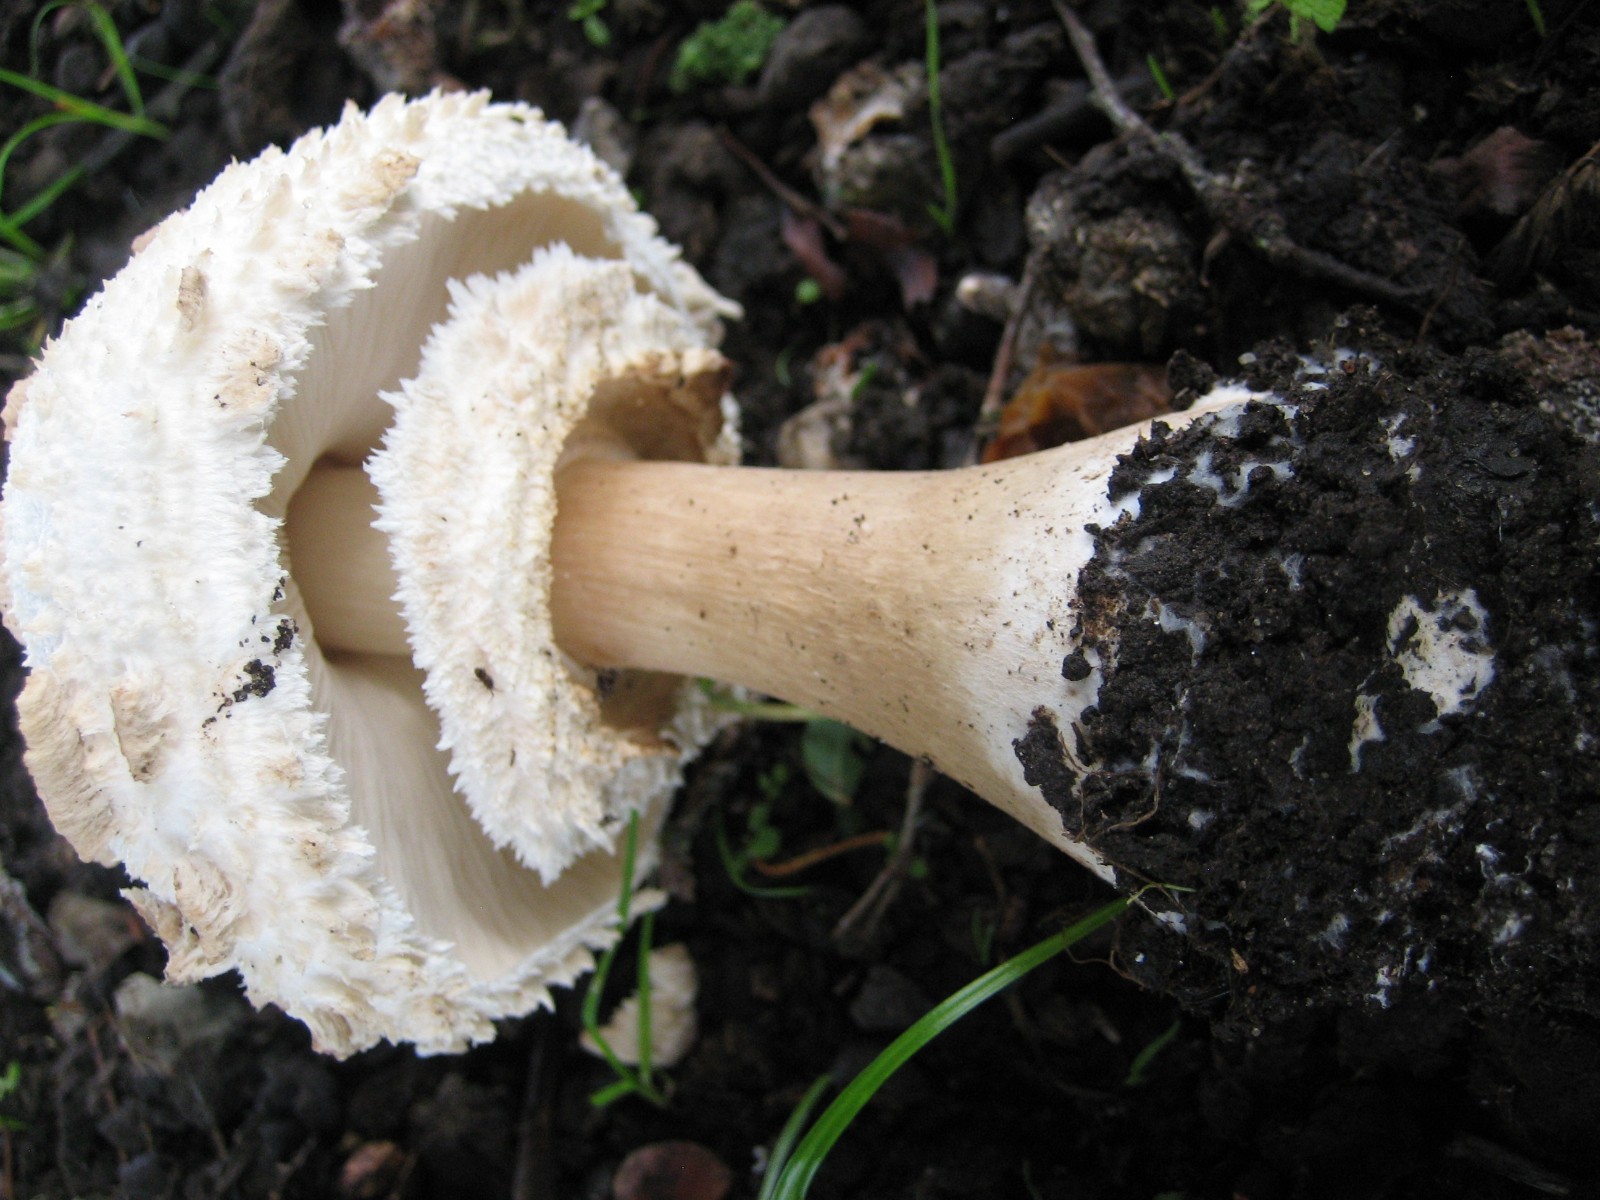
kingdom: Fungi
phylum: Basidiomycota
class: Agaricomycetes
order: Agaricales
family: Agaricaceae
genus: Chlorophyllum
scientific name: Chlorophyllum rhacodes
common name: ægte rabarberhat
